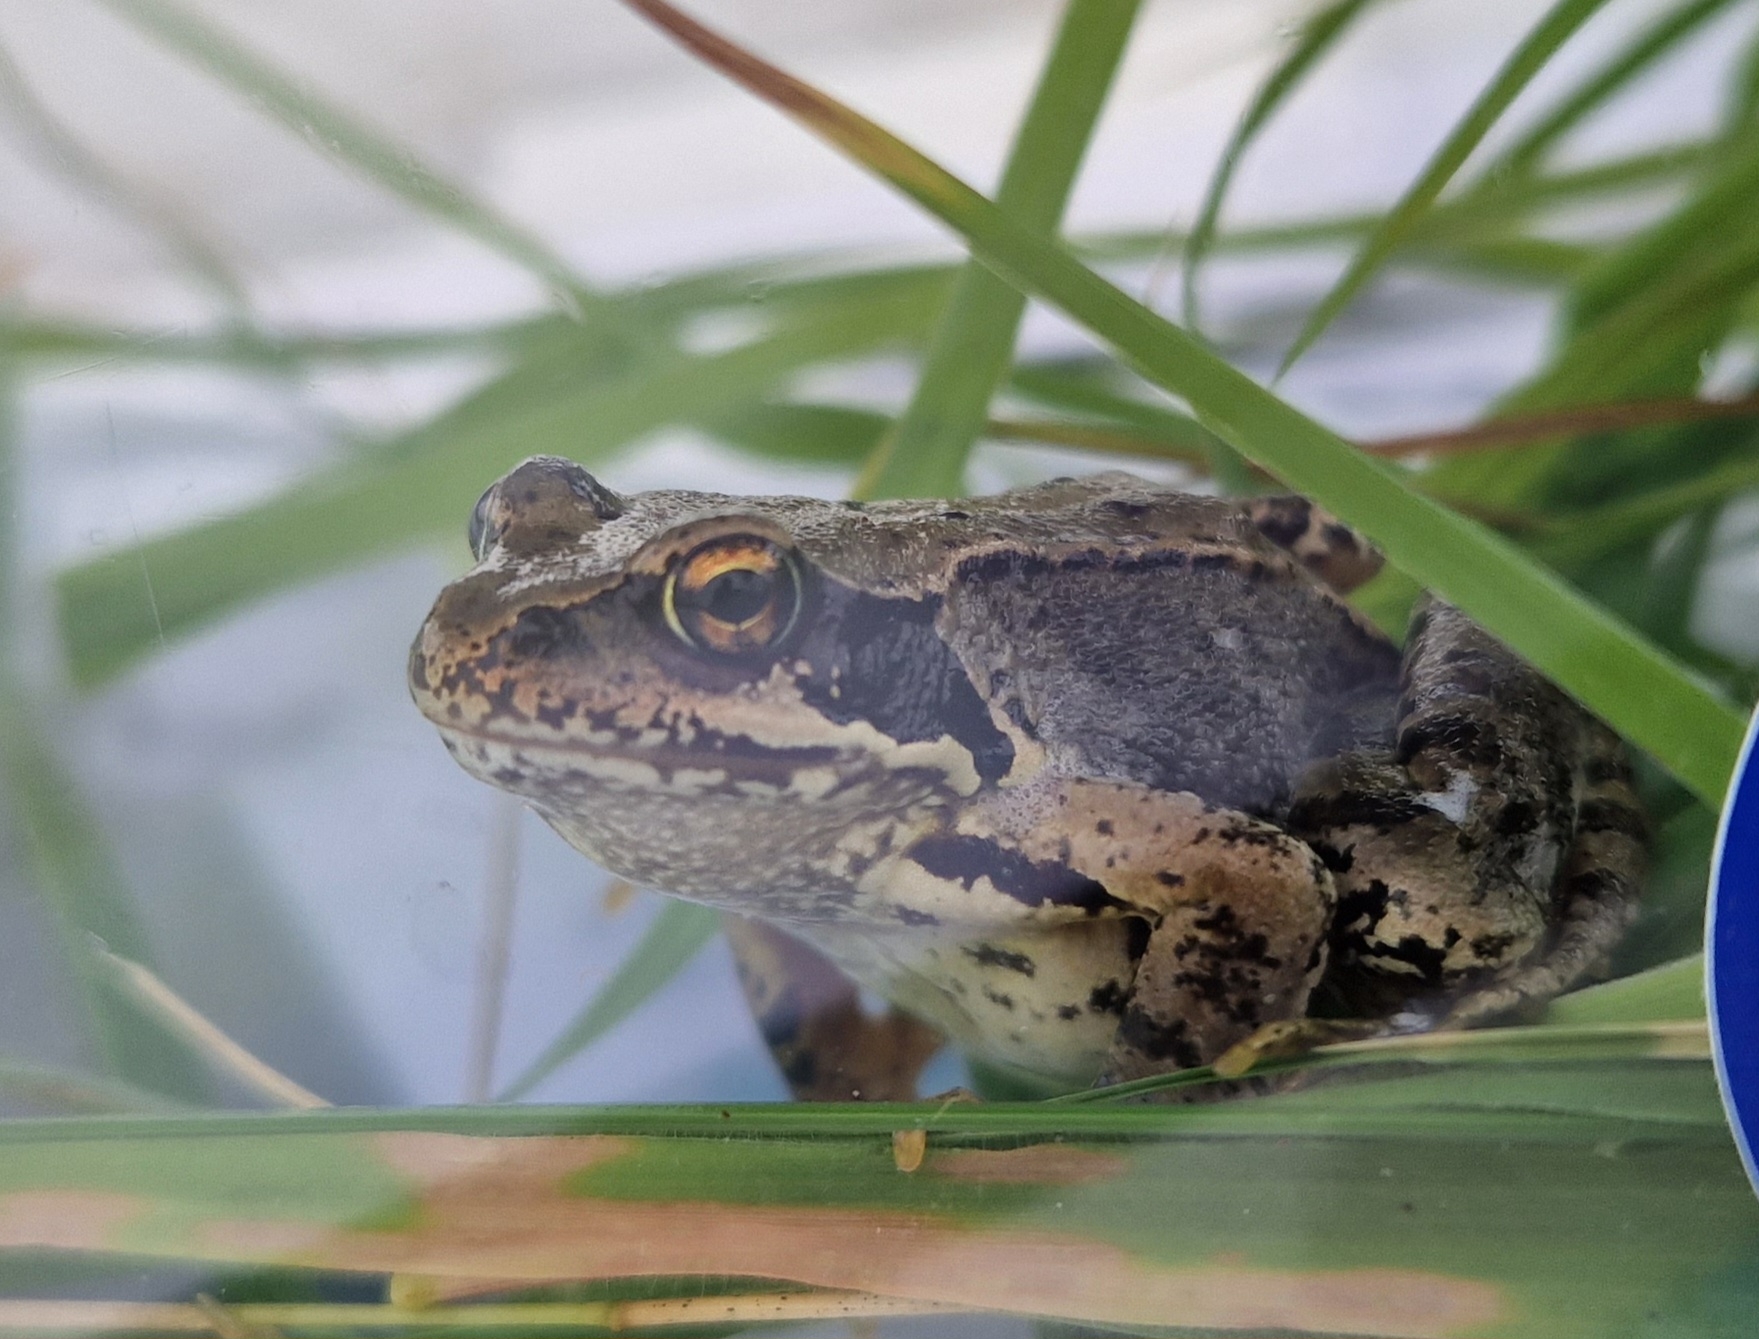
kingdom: Animalia
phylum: Chordata
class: Amphibia
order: Anura
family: Ranidae
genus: Rana
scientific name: Rana temporaria
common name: Butsnudet frø
